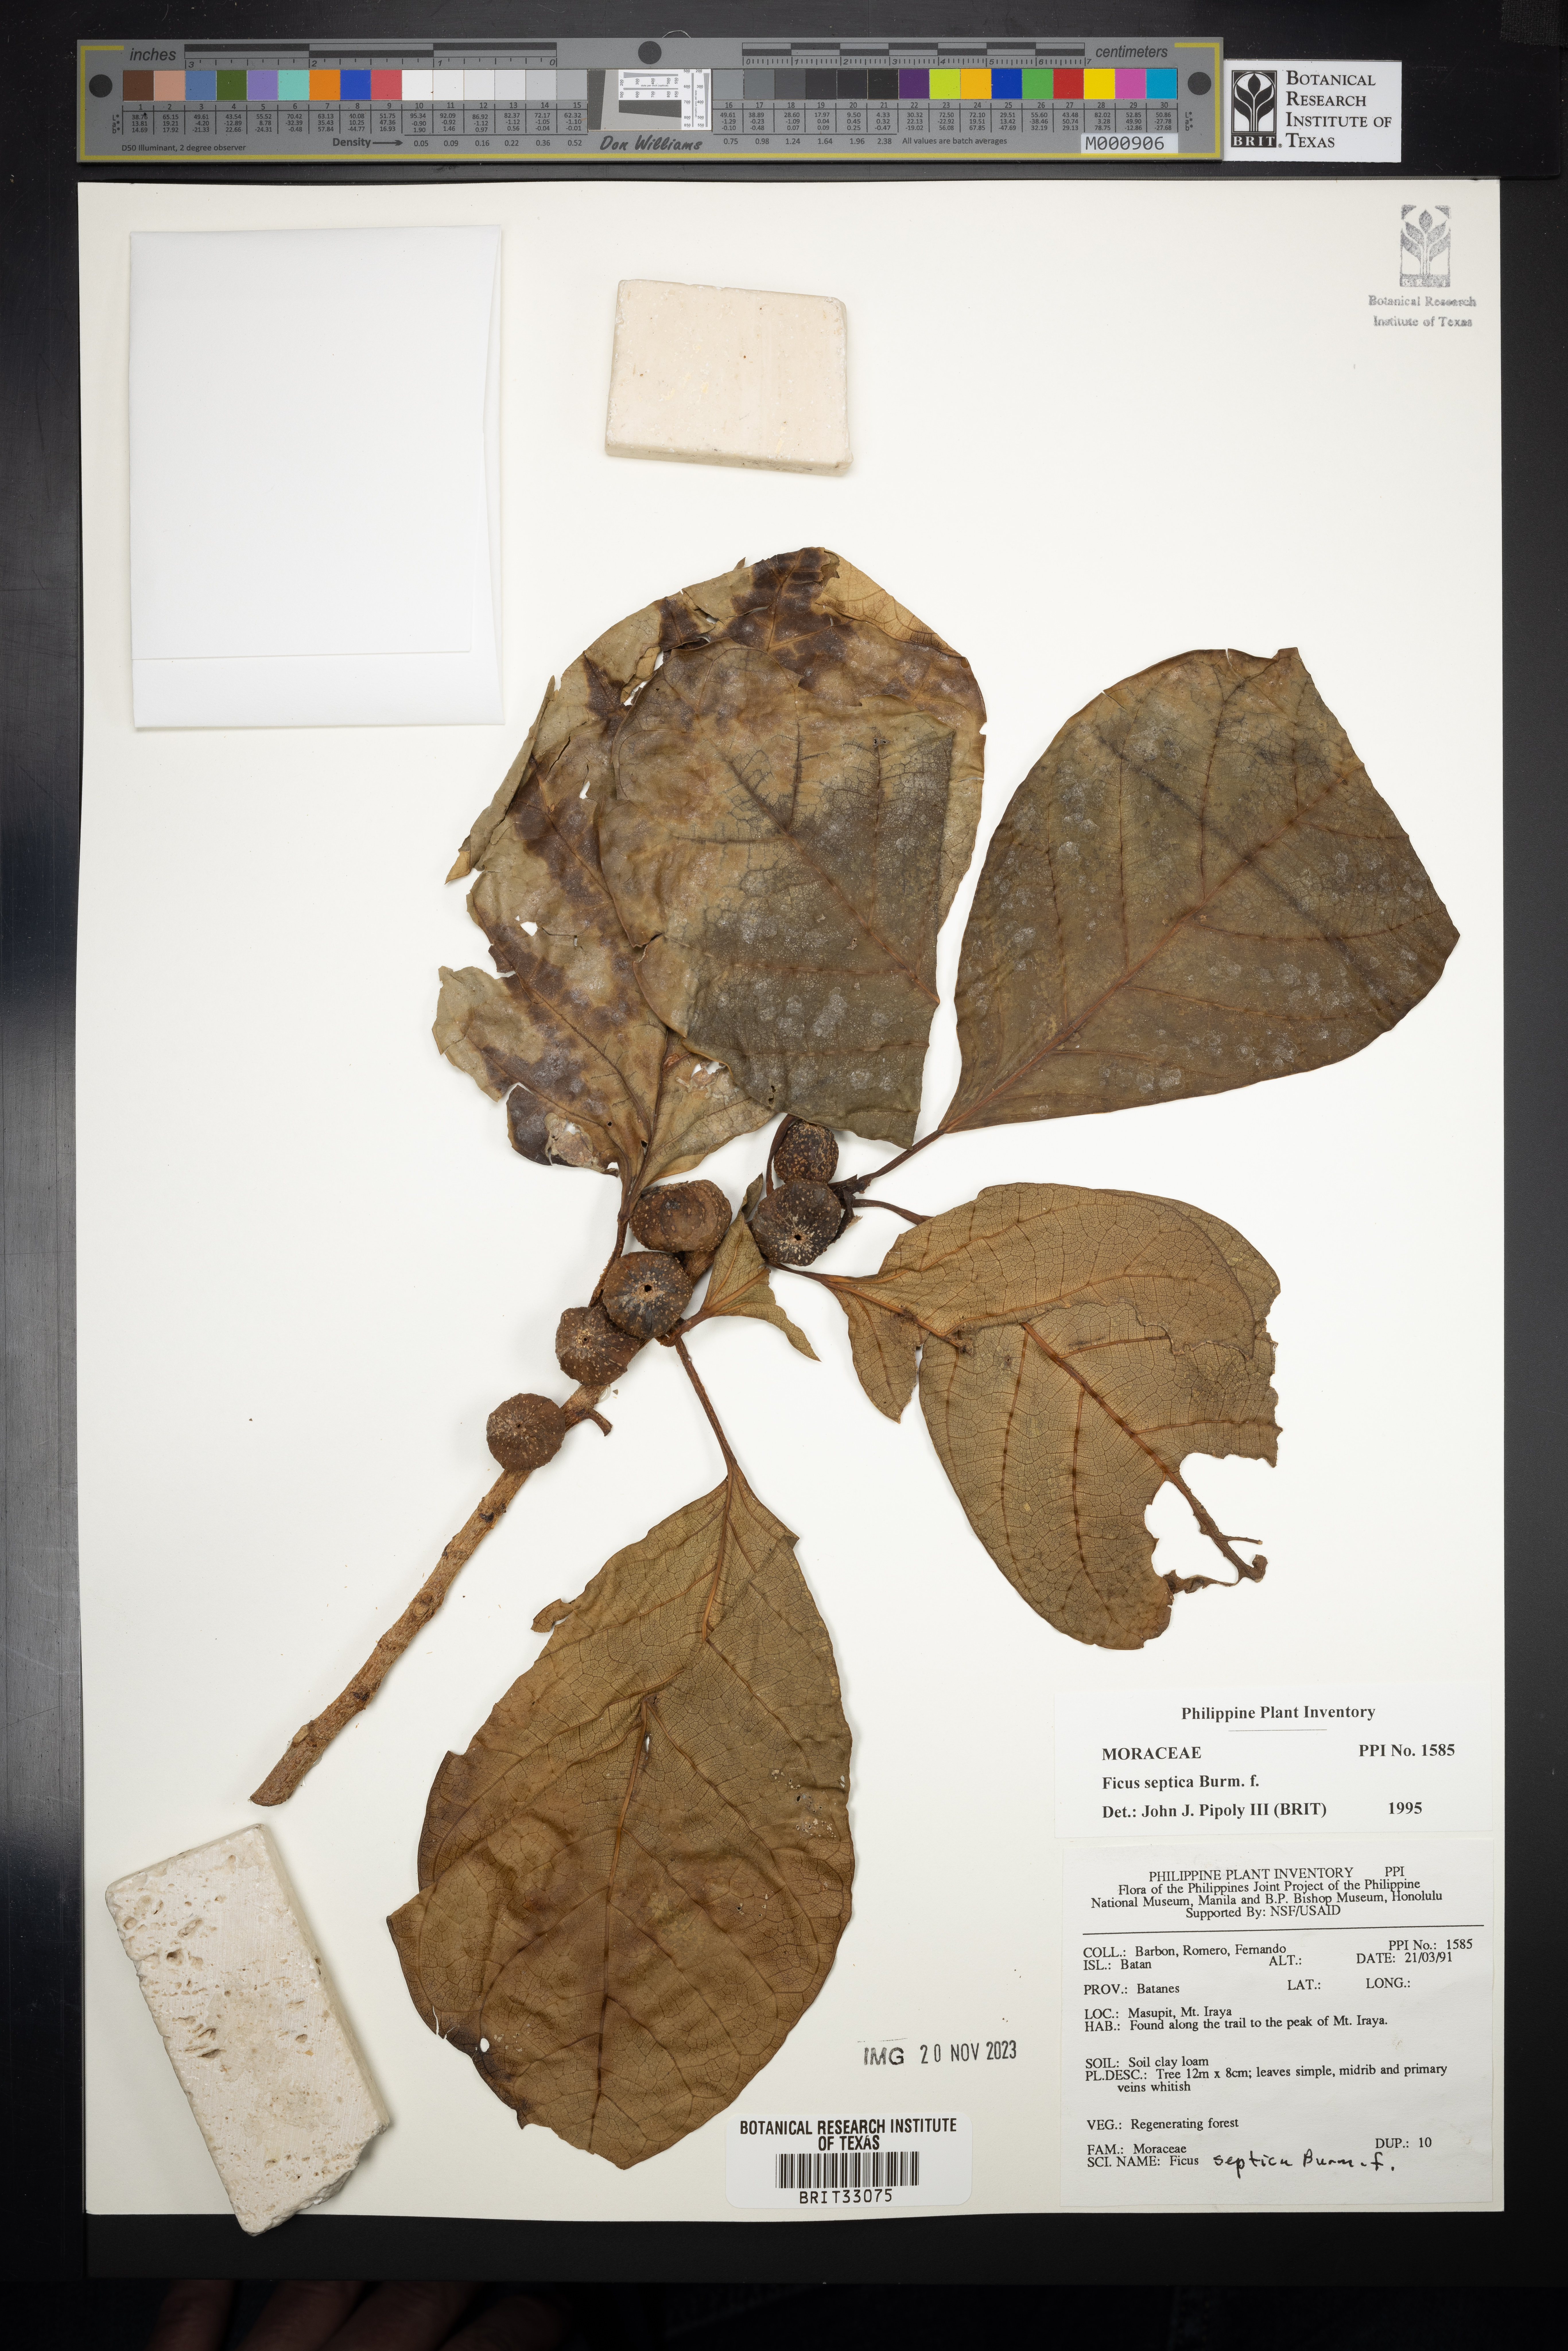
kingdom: Plantae
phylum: Tracheophyta
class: Magnoliopsida
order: Rosales
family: Moraceae
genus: Ficus
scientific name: Ficus septica
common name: Septic fig
